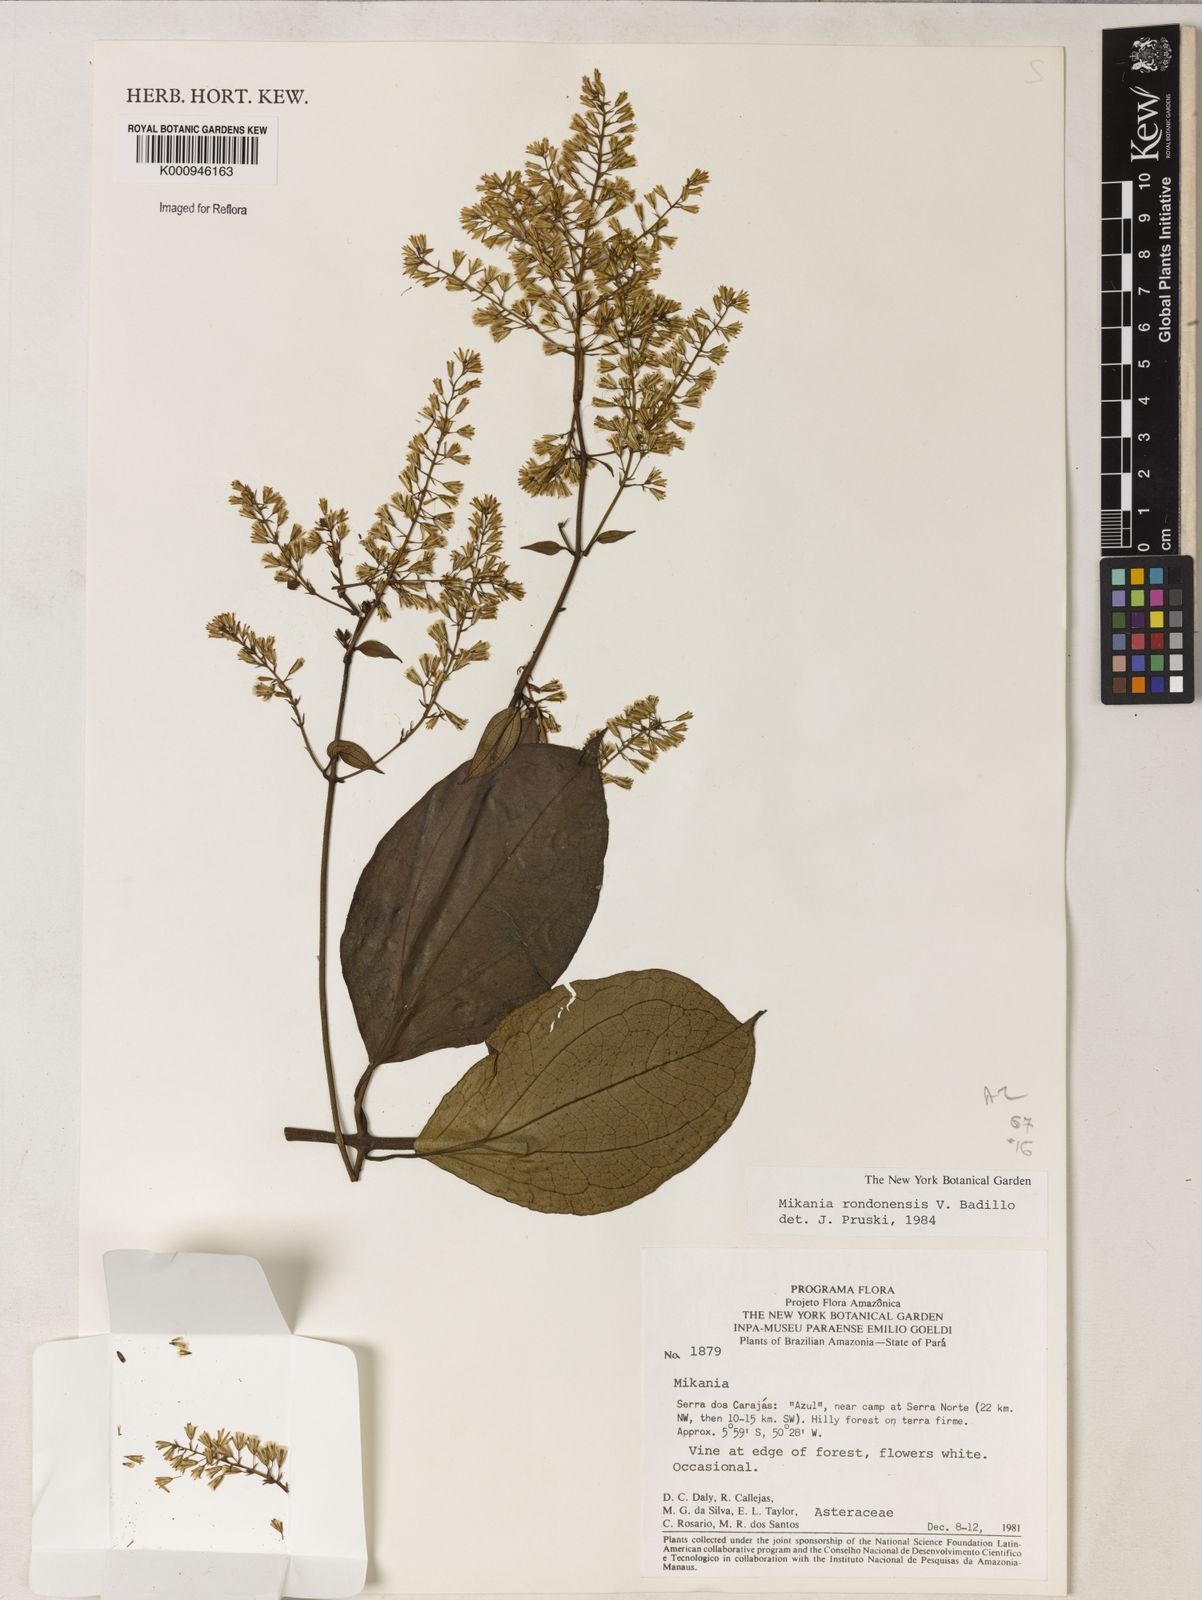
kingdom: Plantae
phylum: Tracheophyta
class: Magnoliopsida
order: Asterales
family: Asteraceae
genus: Mikania
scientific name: Mikania rondonensis
